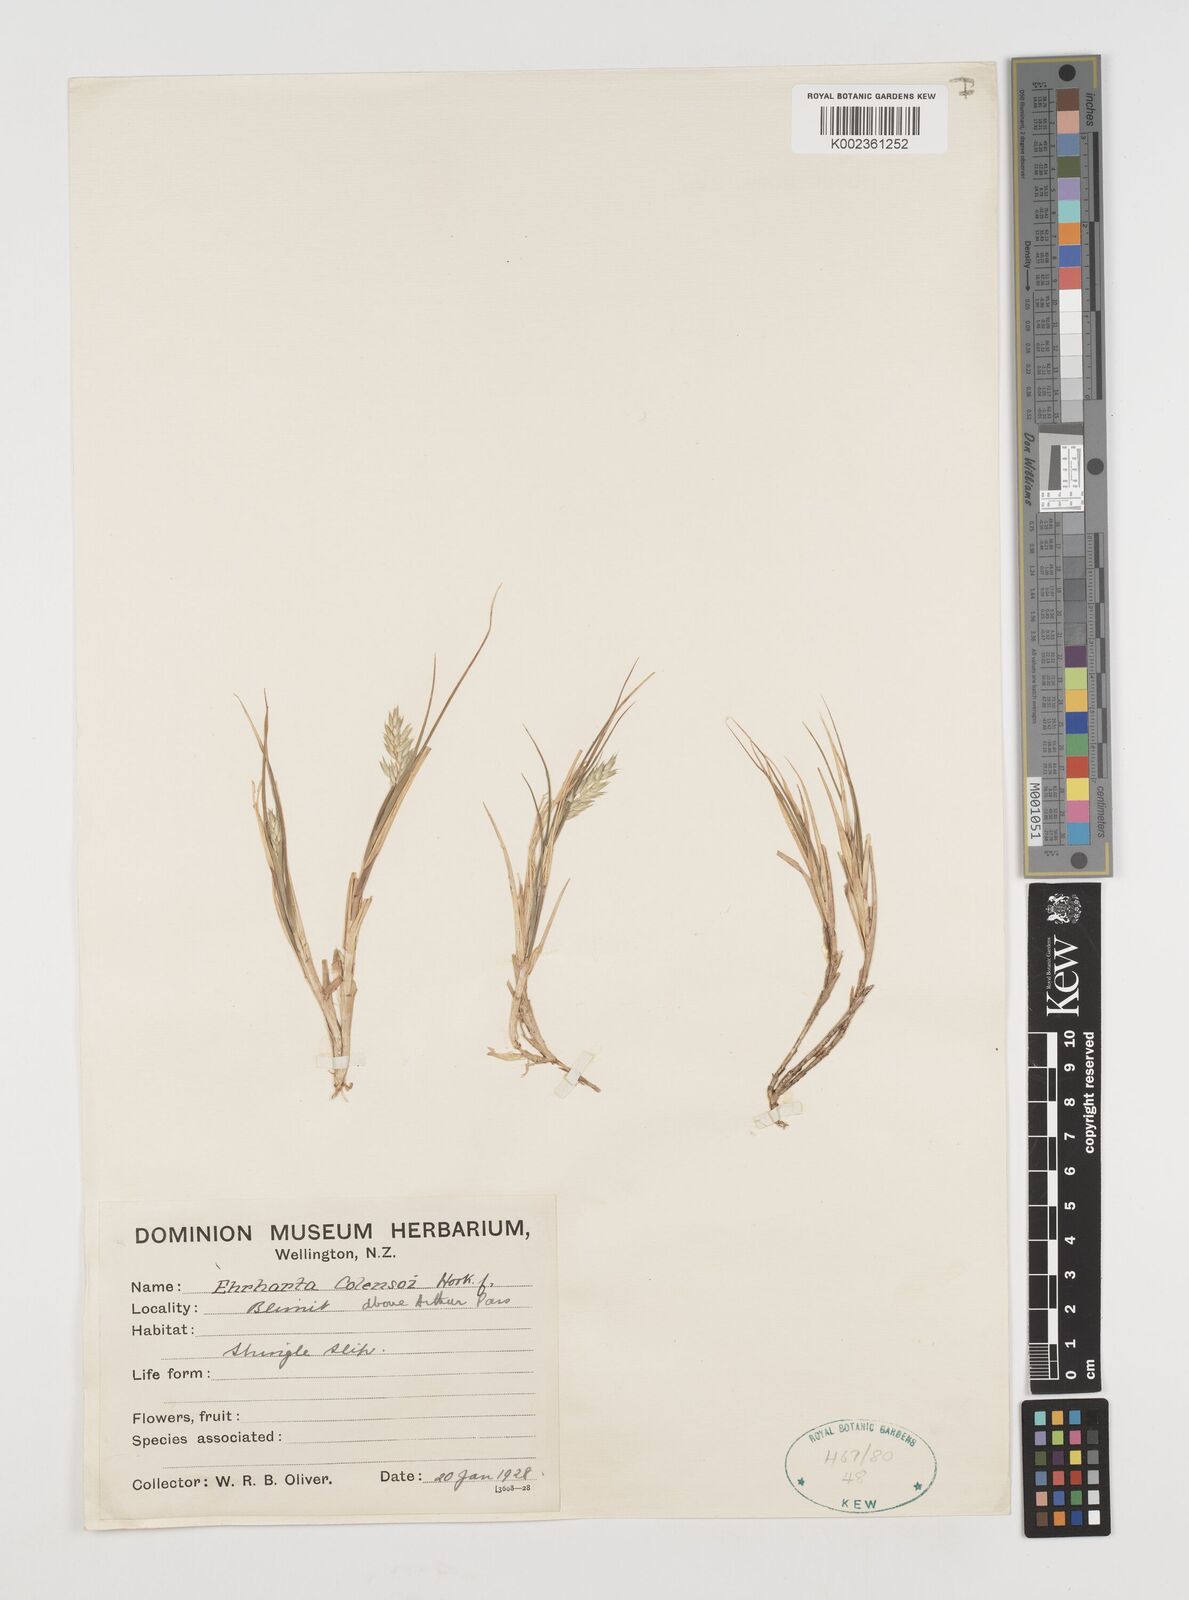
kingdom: Plantae
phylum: Tracheophyta
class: Liliopsida
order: Poales
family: Poaceae
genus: Zotovia
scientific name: Zotovia colensoi
